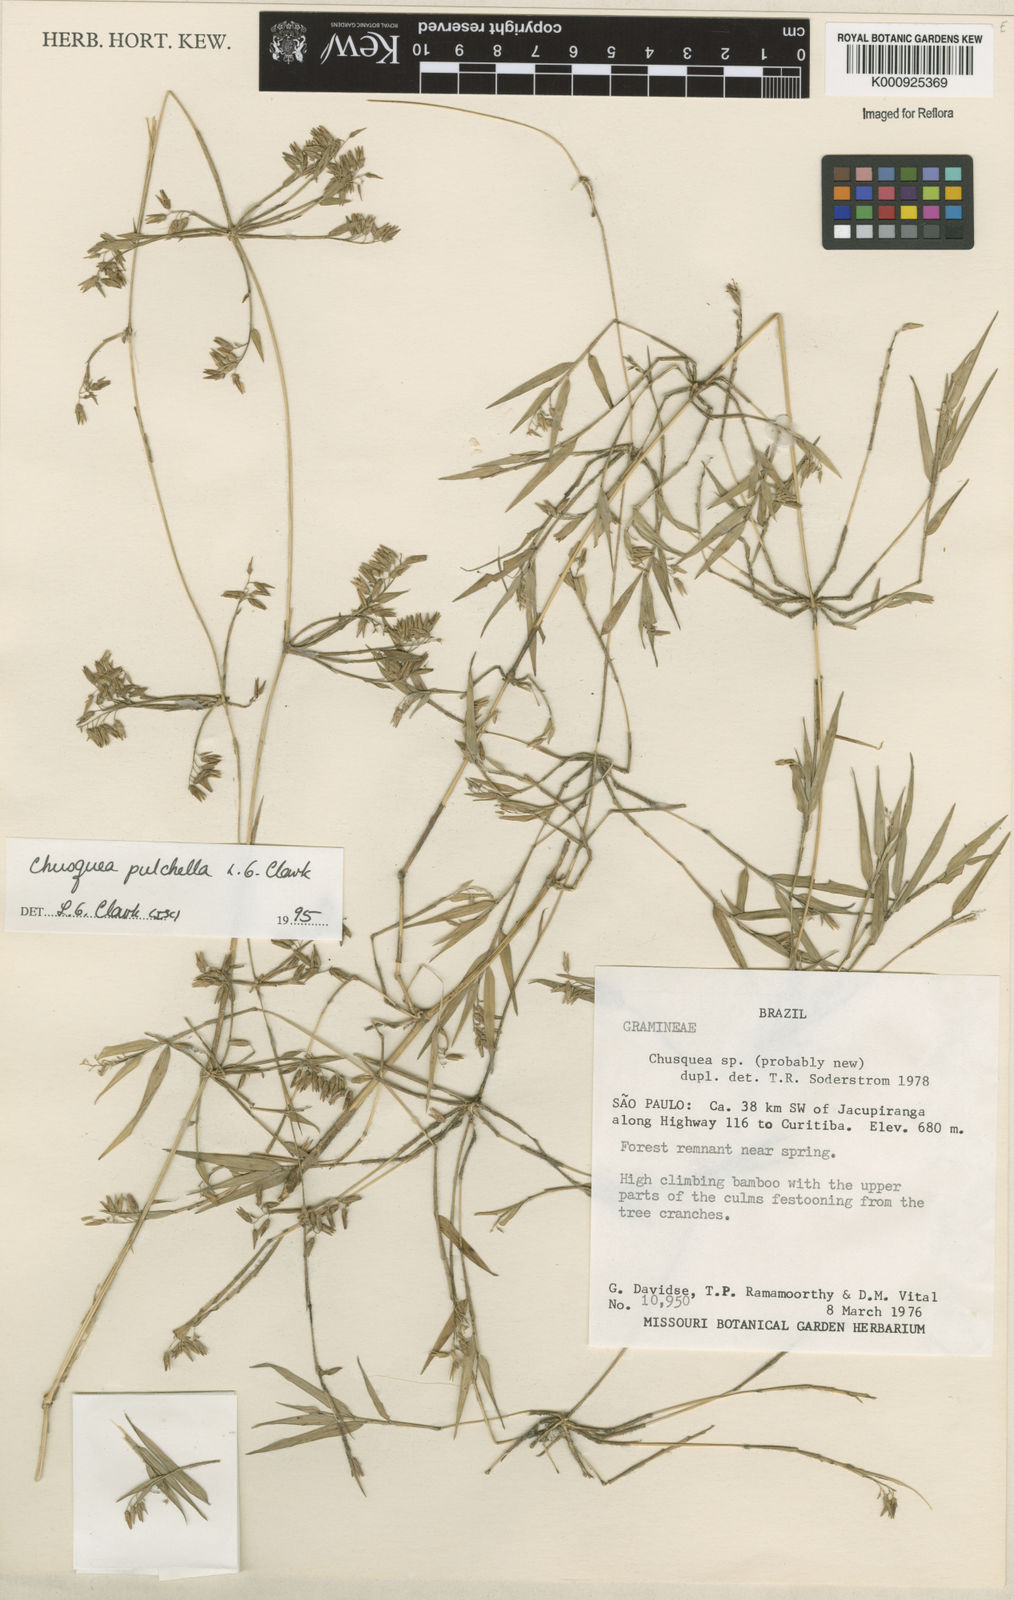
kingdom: Plantae
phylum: Tracheophyta
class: Liliopsida
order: Poales
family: Poaceae
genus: Chusquea
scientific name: Chusquea pulchella
